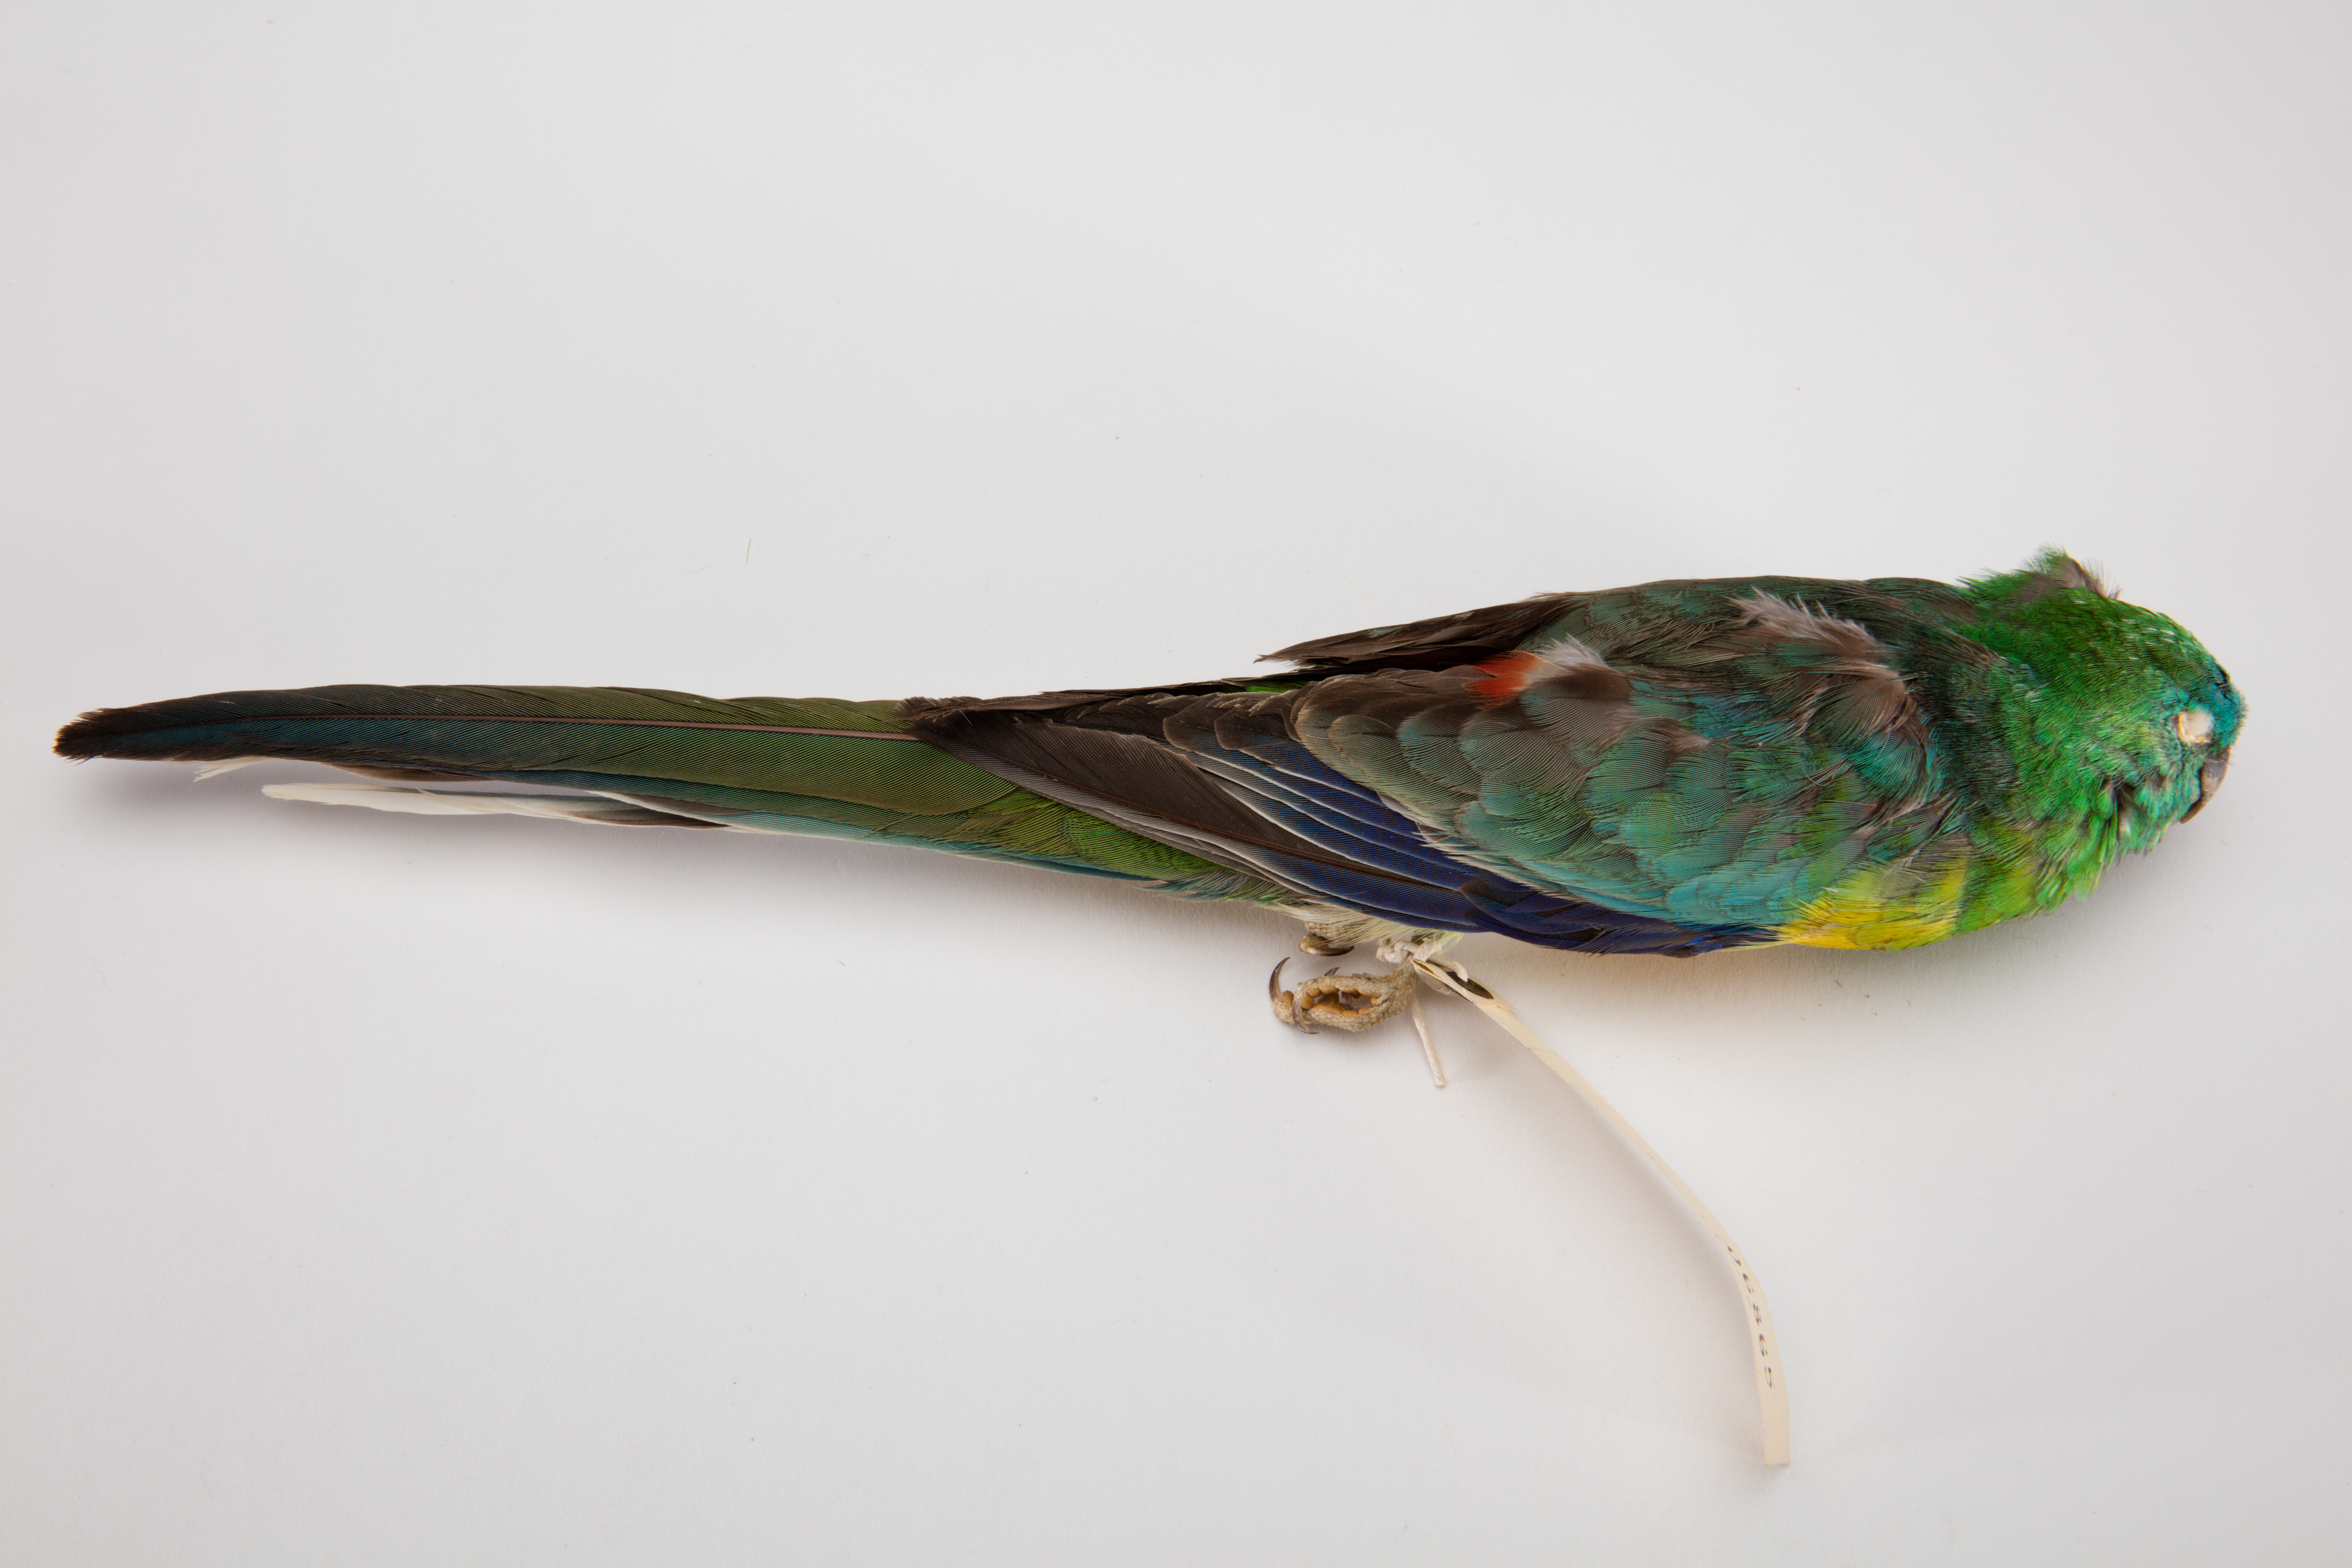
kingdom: Animalia
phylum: Chordata
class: Aves
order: Psittaciformes
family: Psittacidae
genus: Psephotus
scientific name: Psephotus haematonotus
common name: Red-rumped parrot
